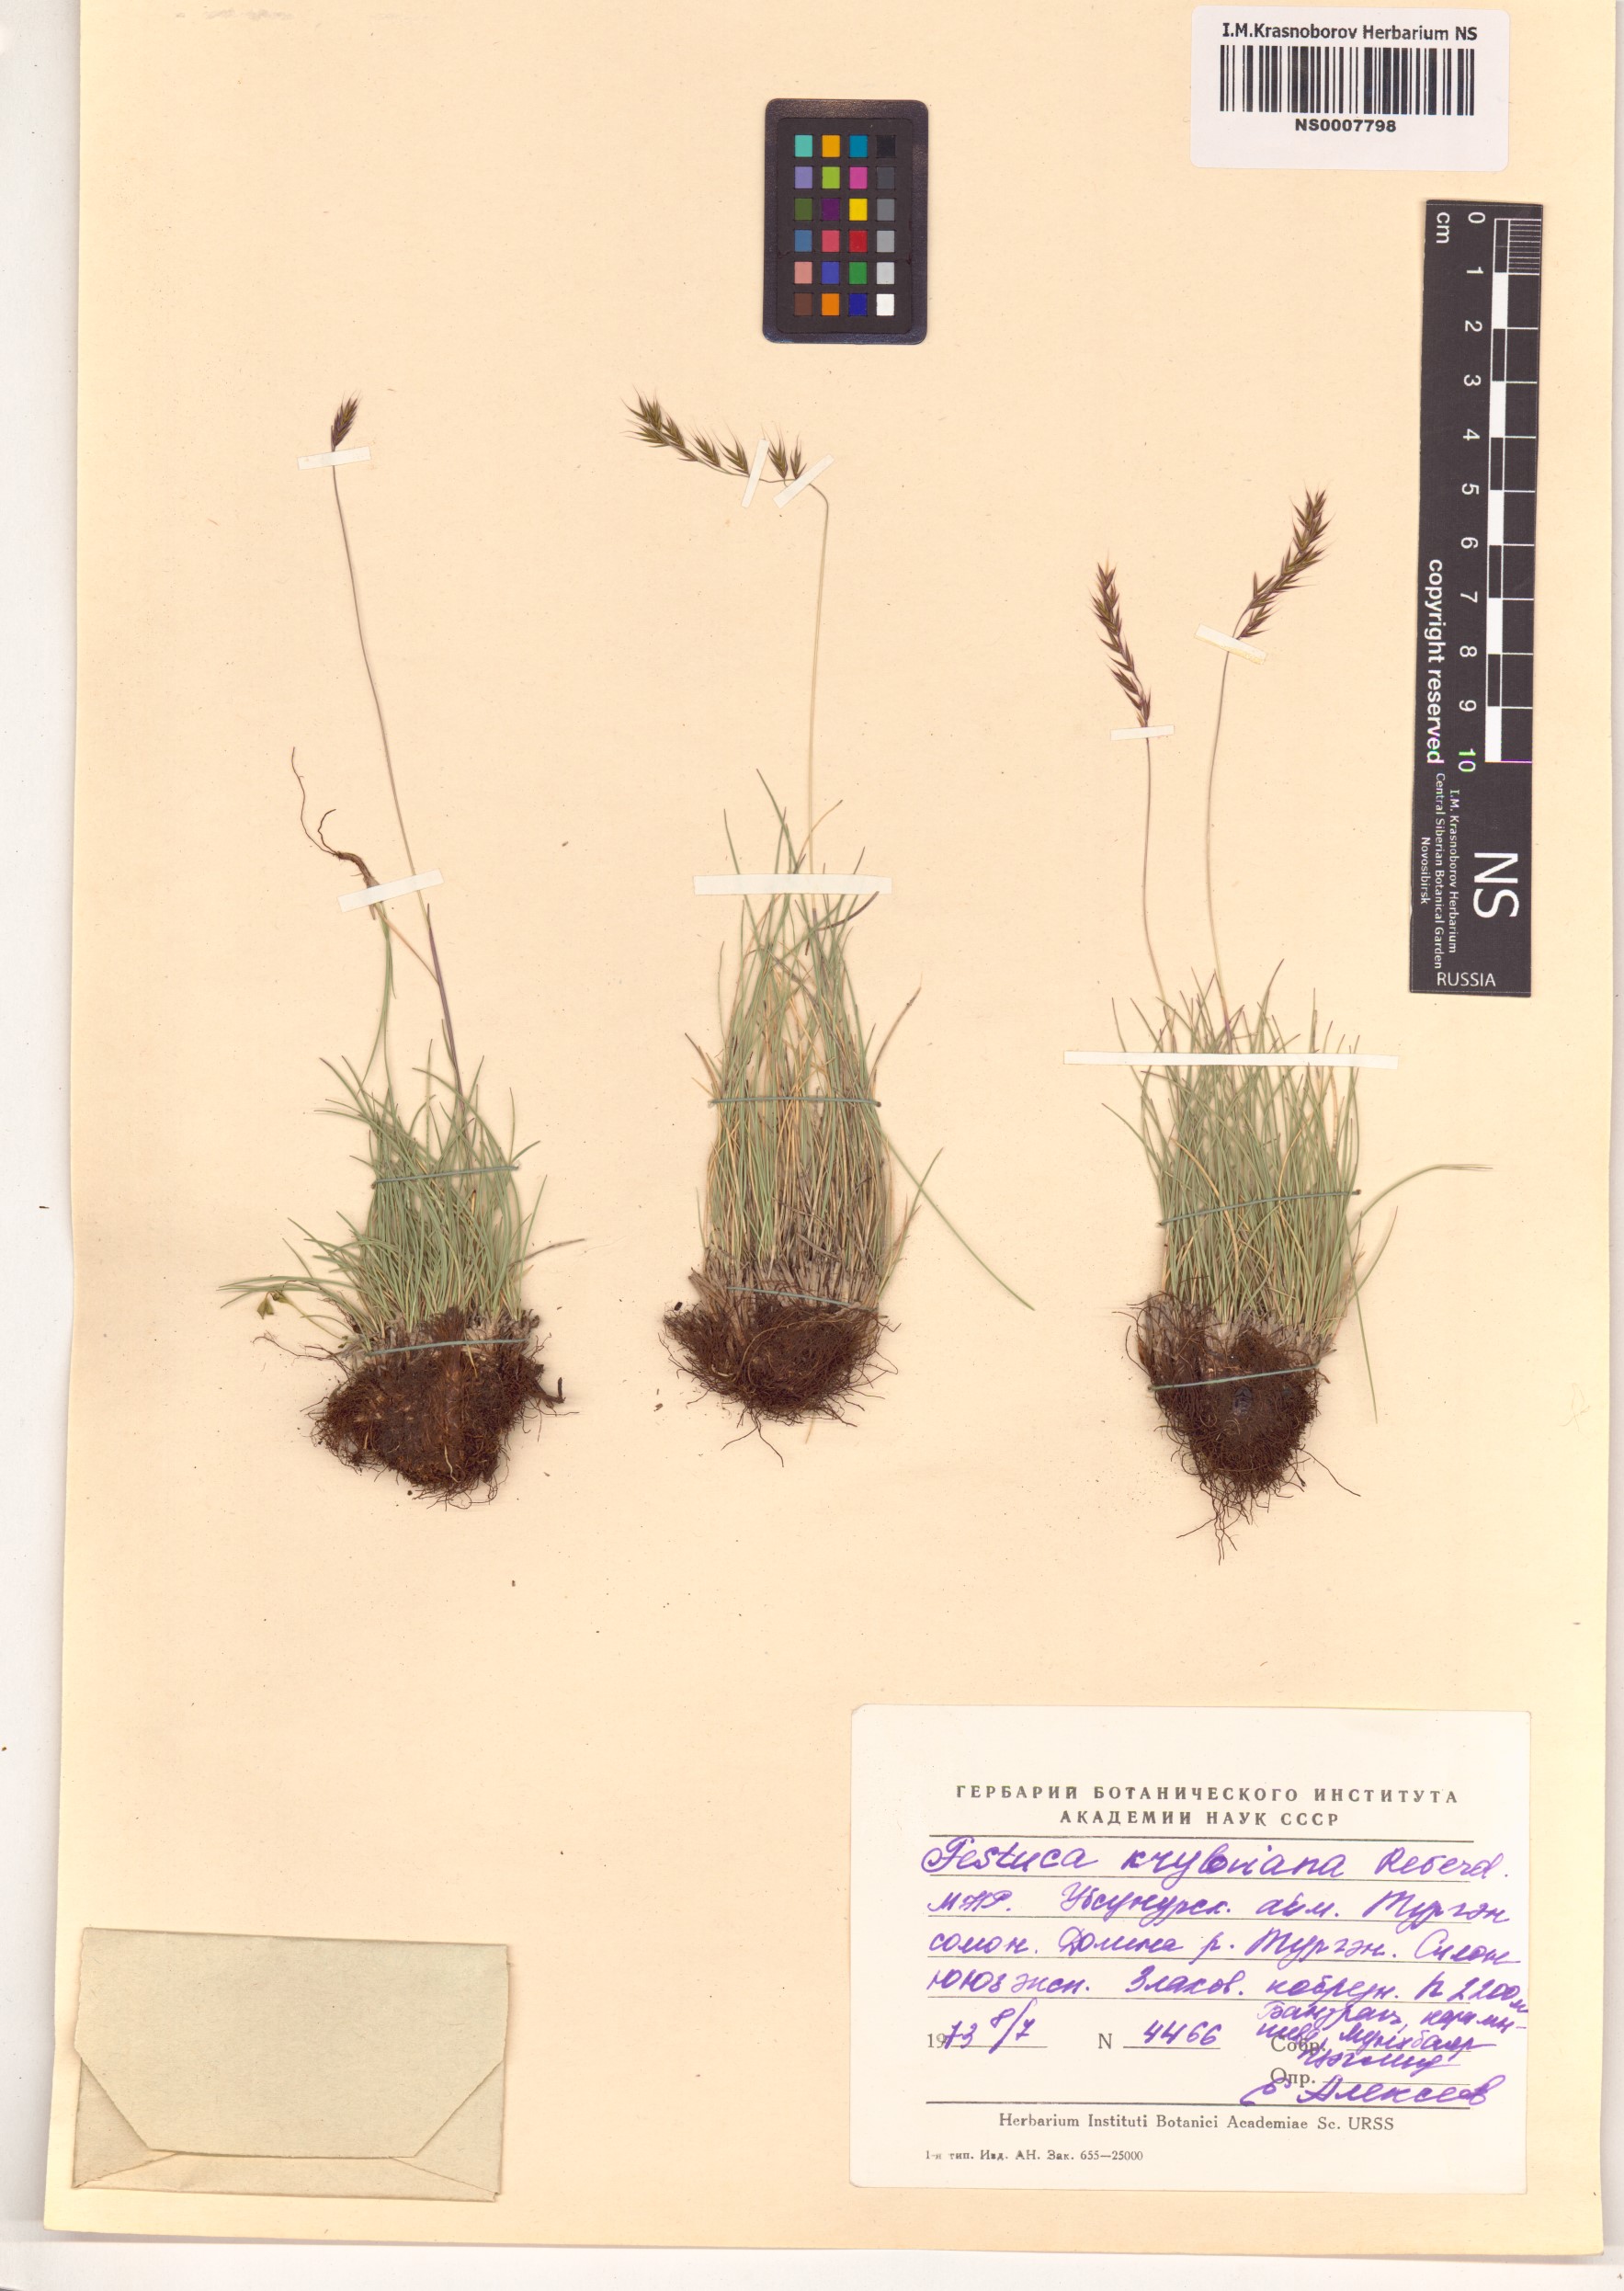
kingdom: Plantae
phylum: Tracheophyta
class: Liliopsida
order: Poales
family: Poaceae
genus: Festuca
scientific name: Festuca kryloviana
